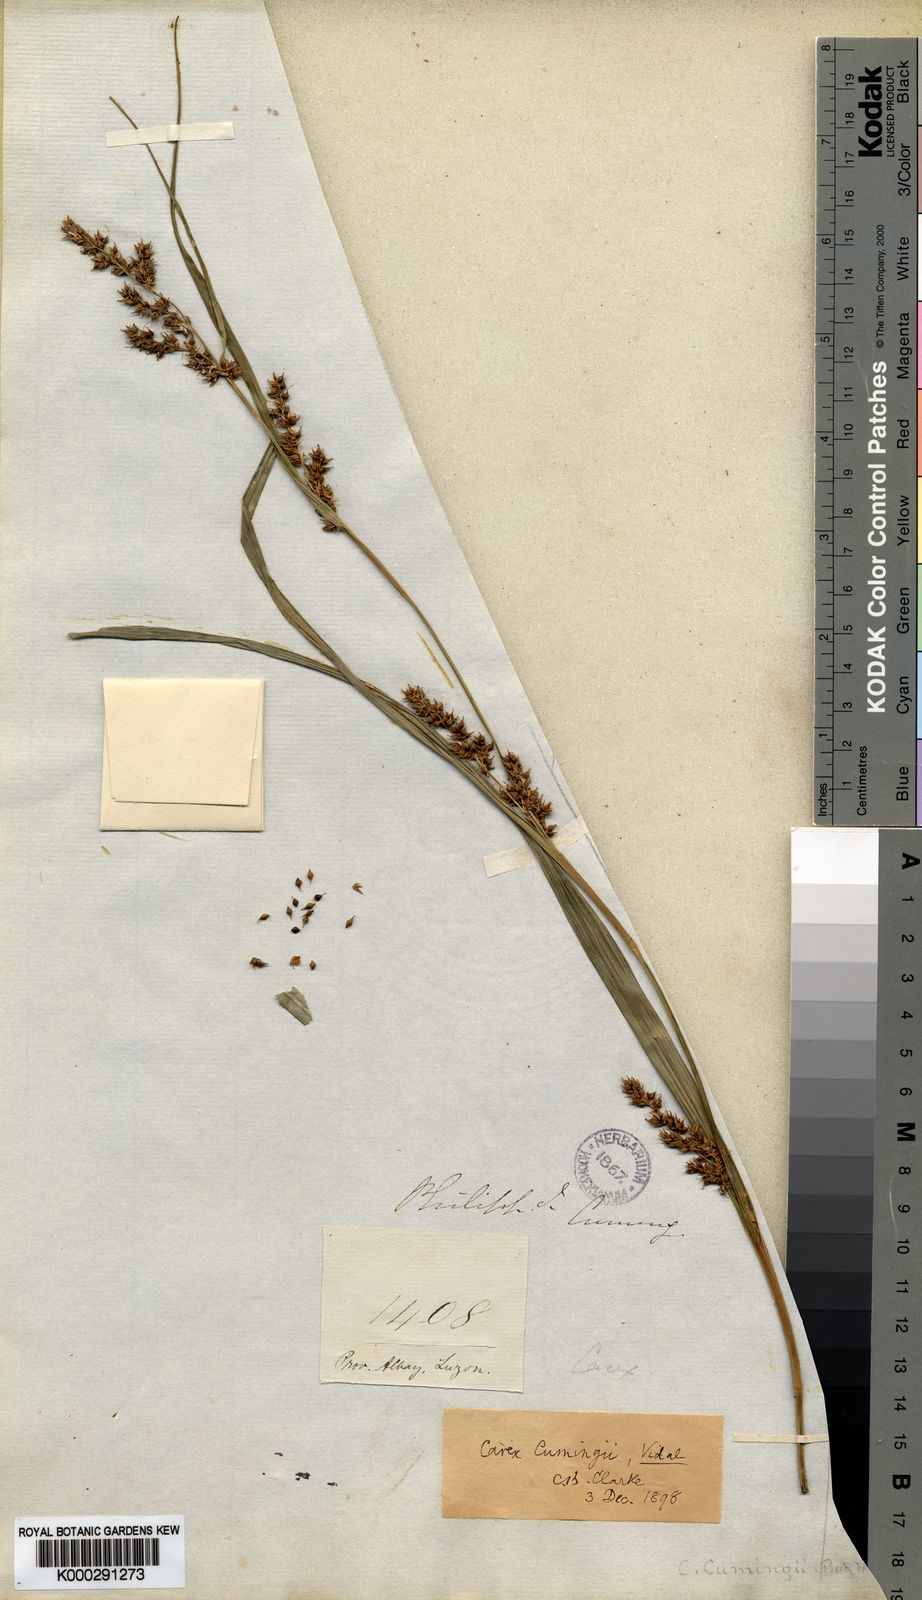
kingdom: Plantae
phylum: Tracheophyta
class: Liliopsida
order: Poales
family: Cyperaceae
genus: Carex
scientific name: Carex
